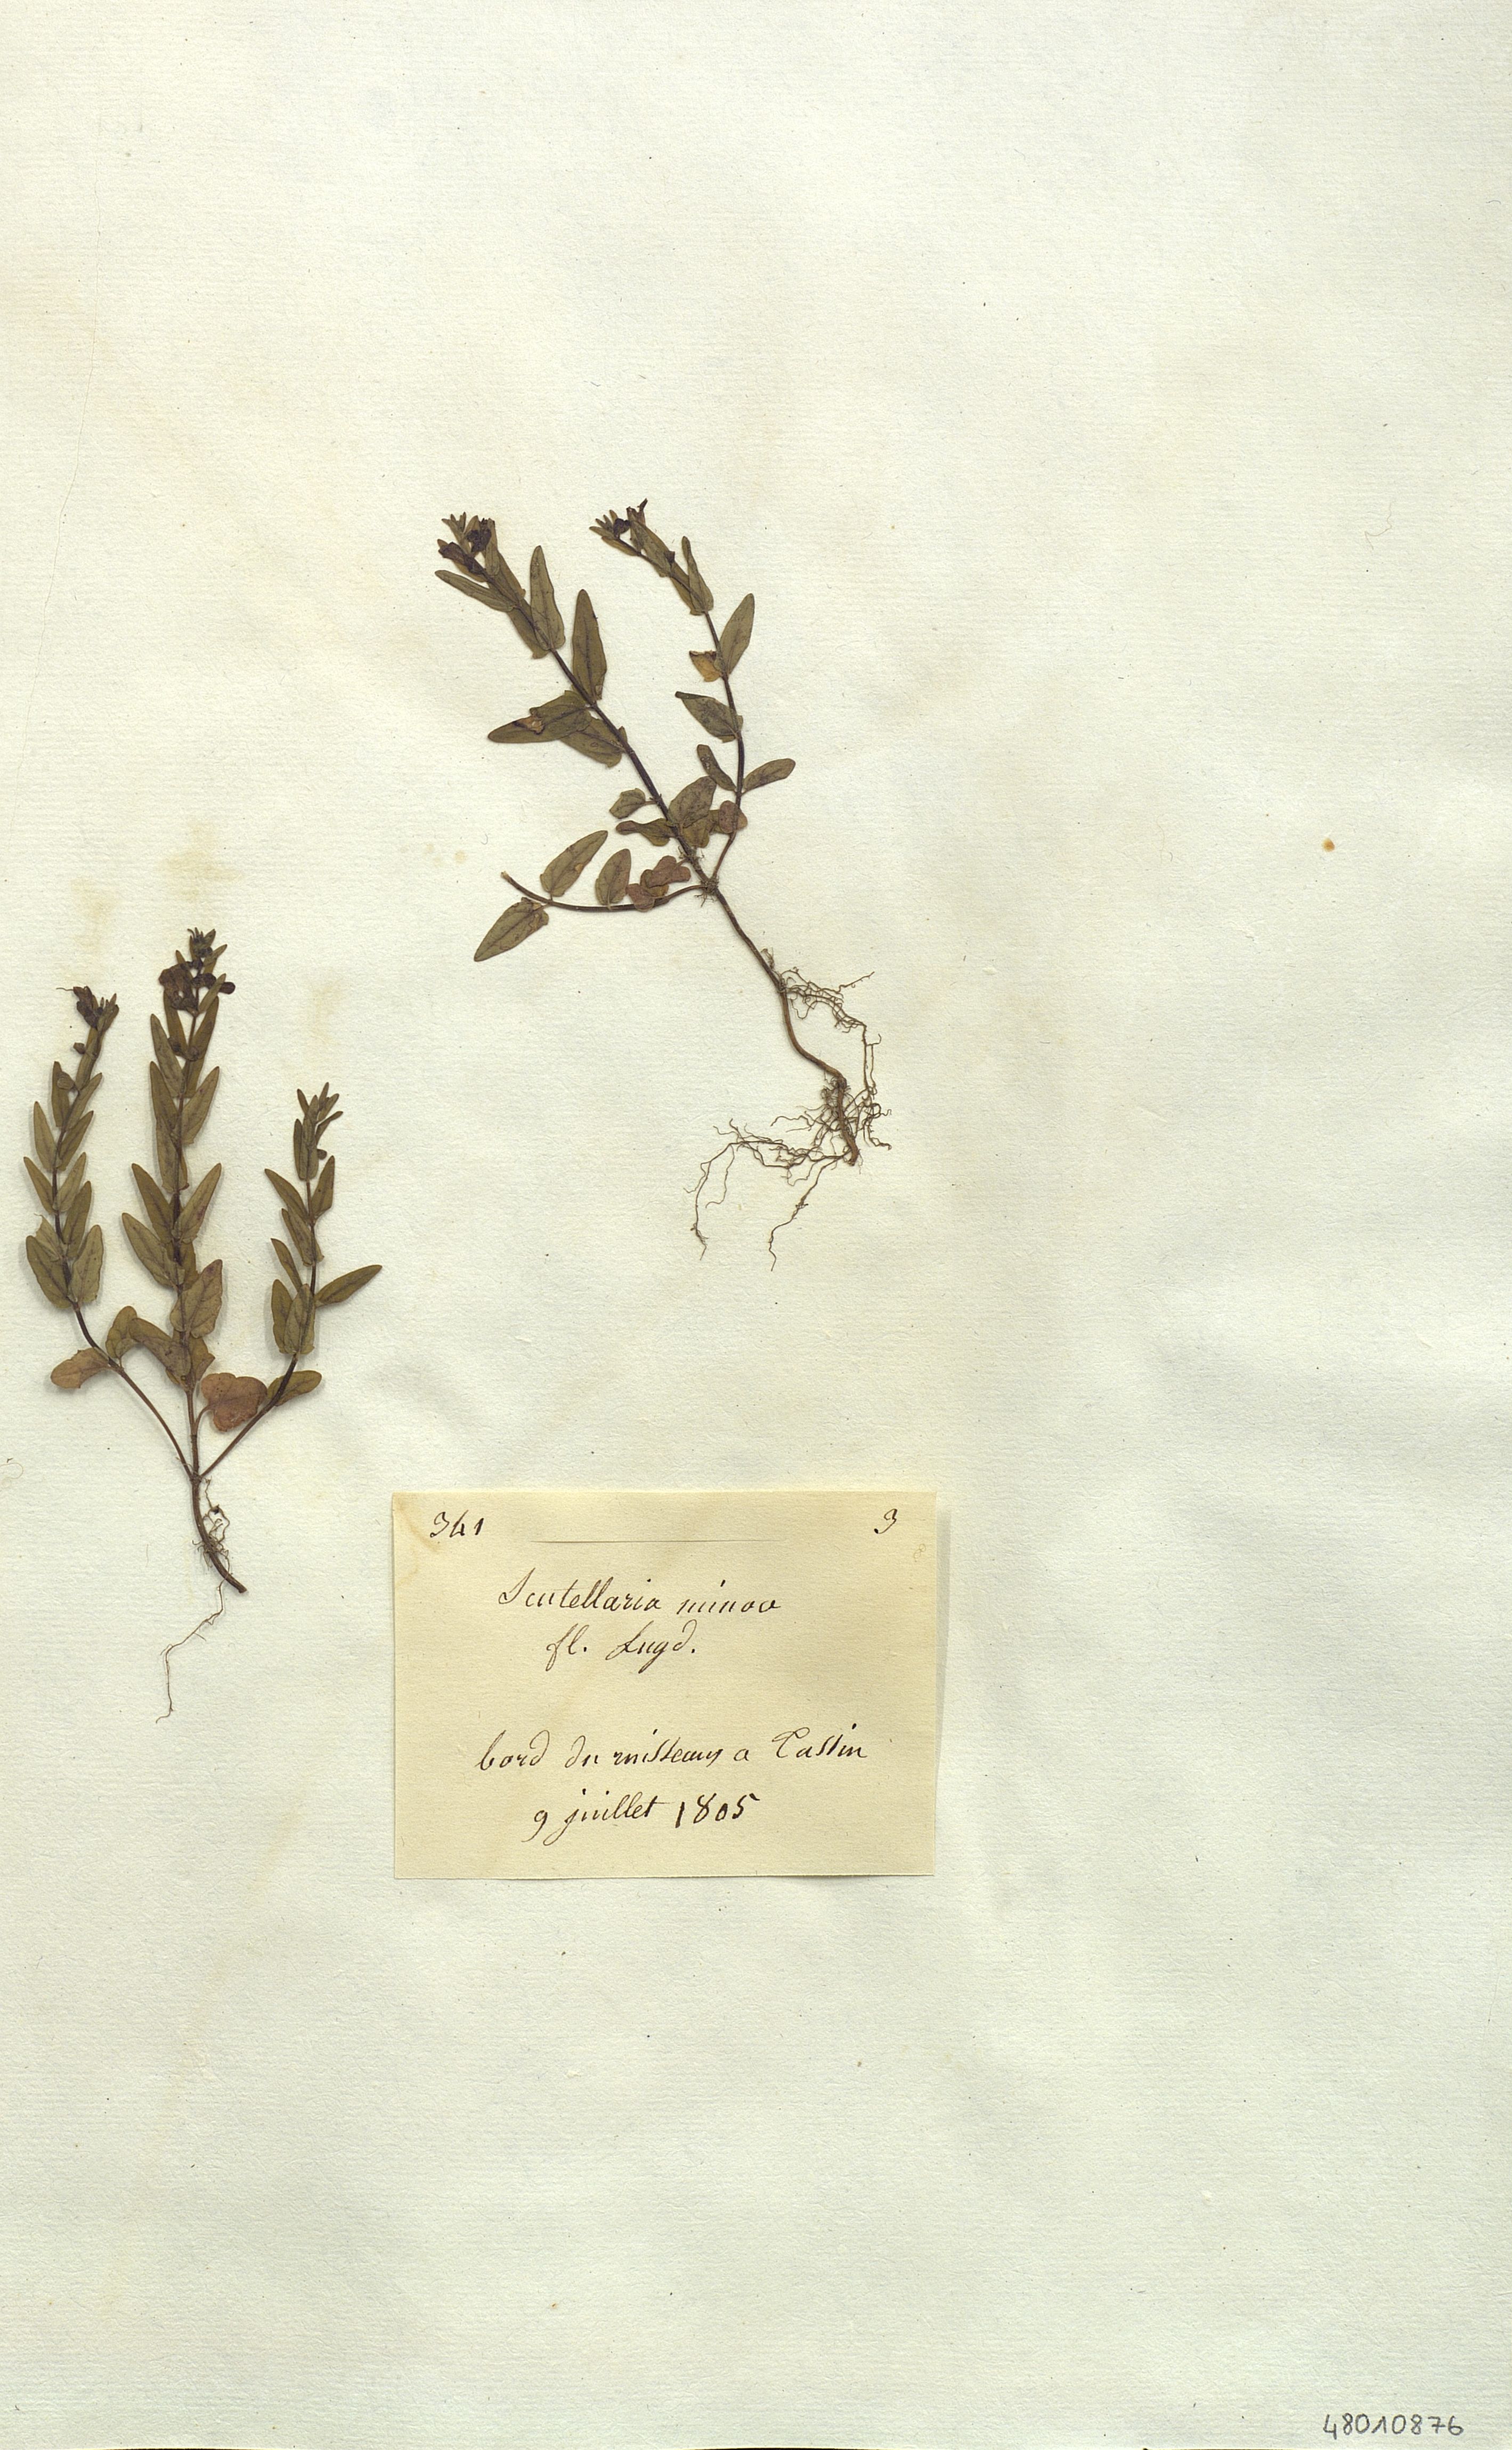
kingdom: Plantae
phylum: Tracheophyta
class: Magnoliopsida
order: Lamiales
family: Lamiaceae
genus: Scutellaria
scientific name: Scutellaria minor
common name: Lesser skullcap
